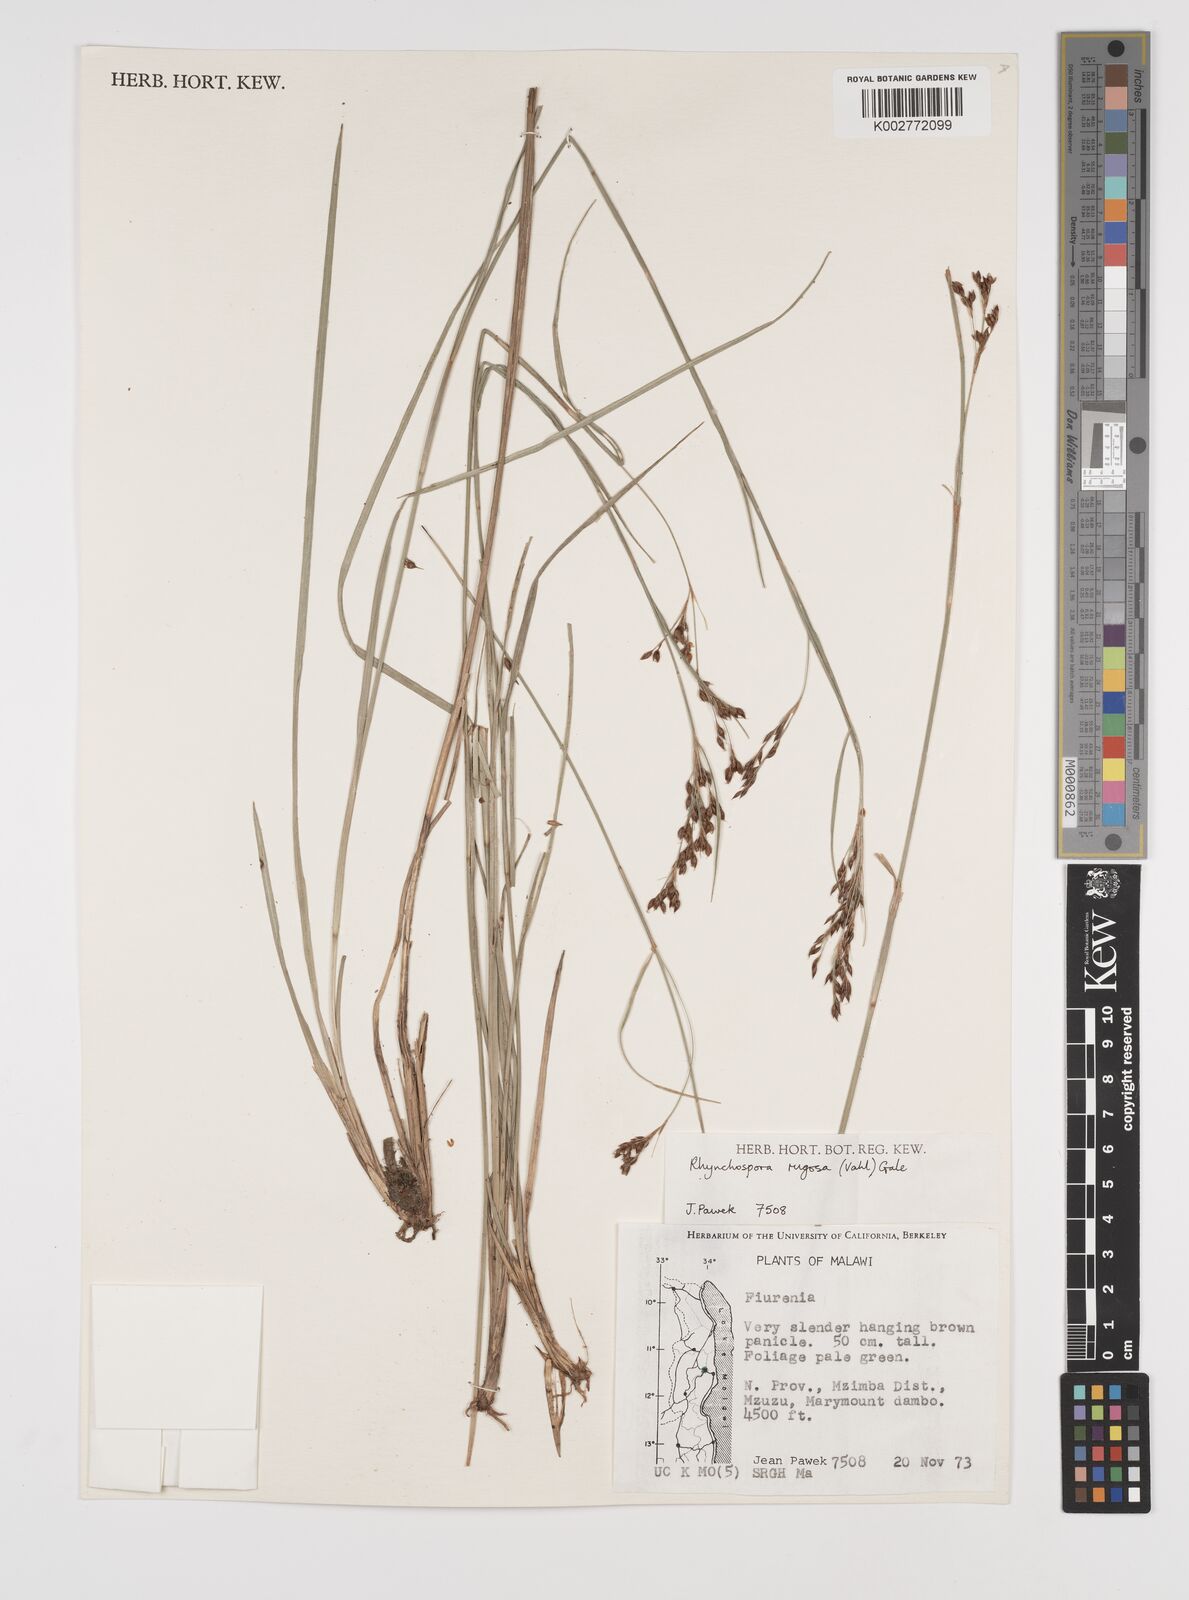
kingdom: Plantae
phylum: Tracheophyta
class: Liliopsida
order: Poales
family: Cyperaceae
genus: Rhynchospora
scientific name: Rhynchospora rugosa
